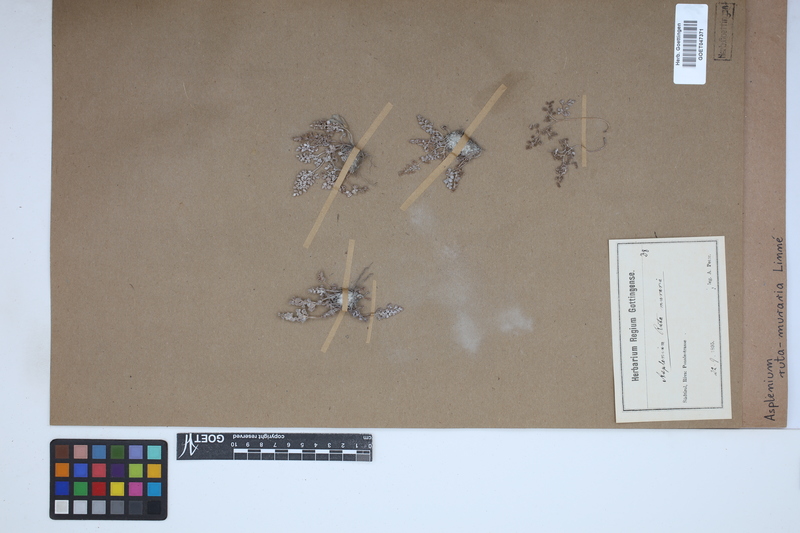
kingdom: Plantae
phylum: Tracheophyta
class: Polypodiopsida
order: Polypodiales
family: Aspleniaceae
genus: Asplenium
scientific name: Asplenium ruta-muraria
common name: Wall-rue
